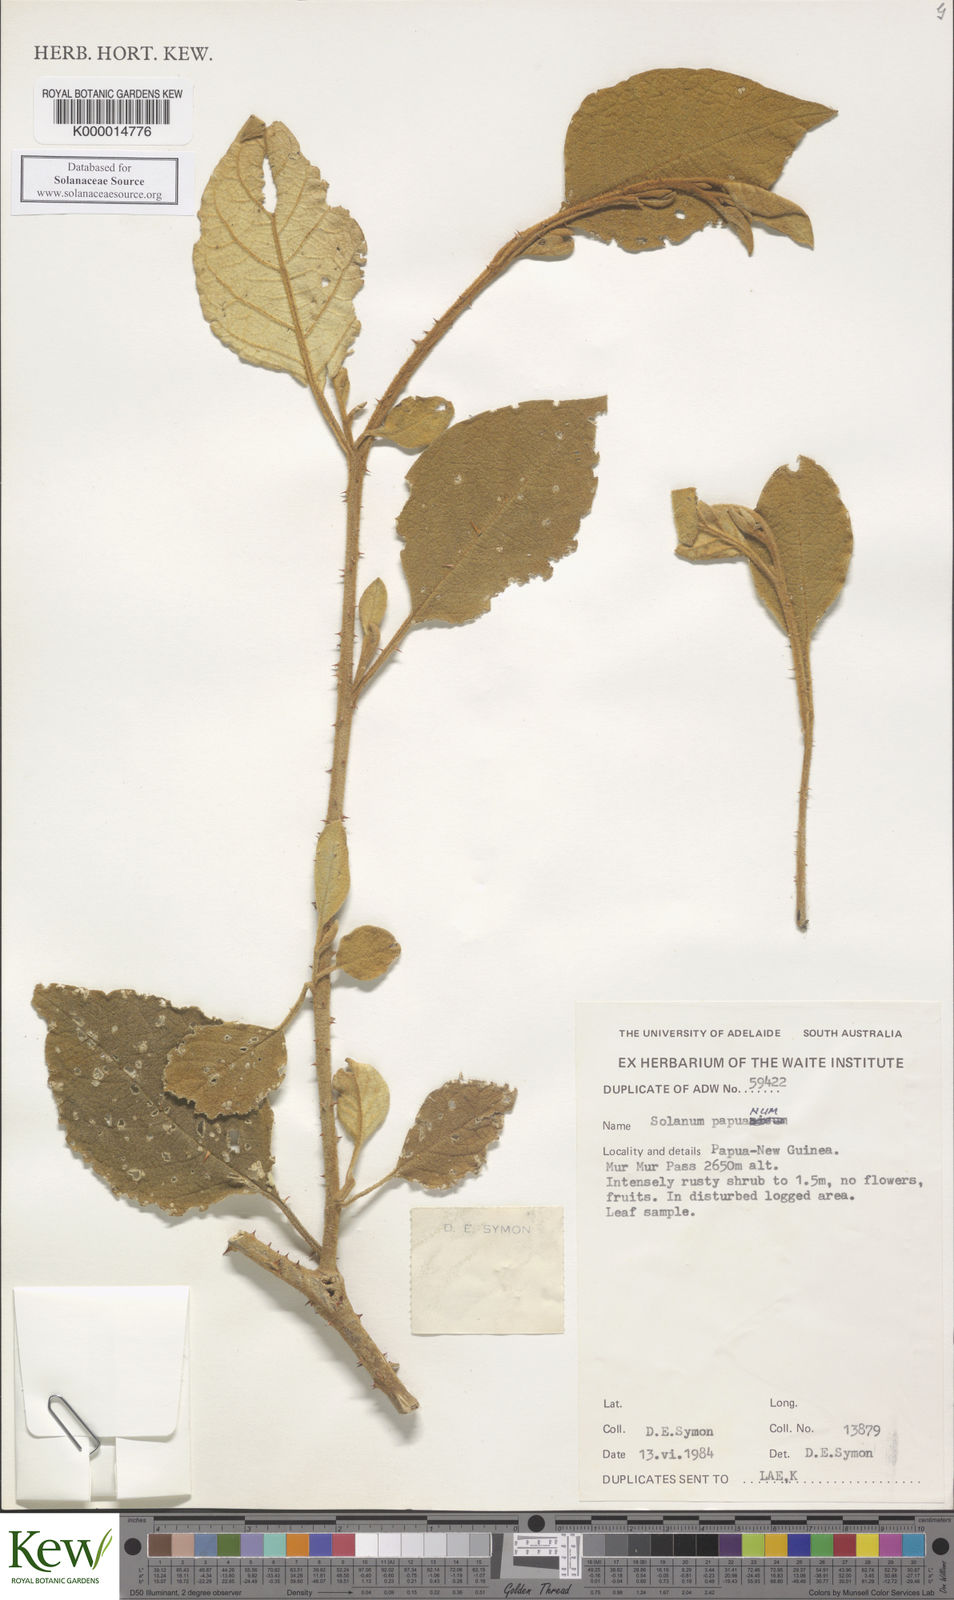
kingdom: Plantae
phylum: Tracheophyta
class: Magnoliopsida
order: Solanales
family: Solanaceae
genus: Solanum
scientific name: Solanum papuanum
